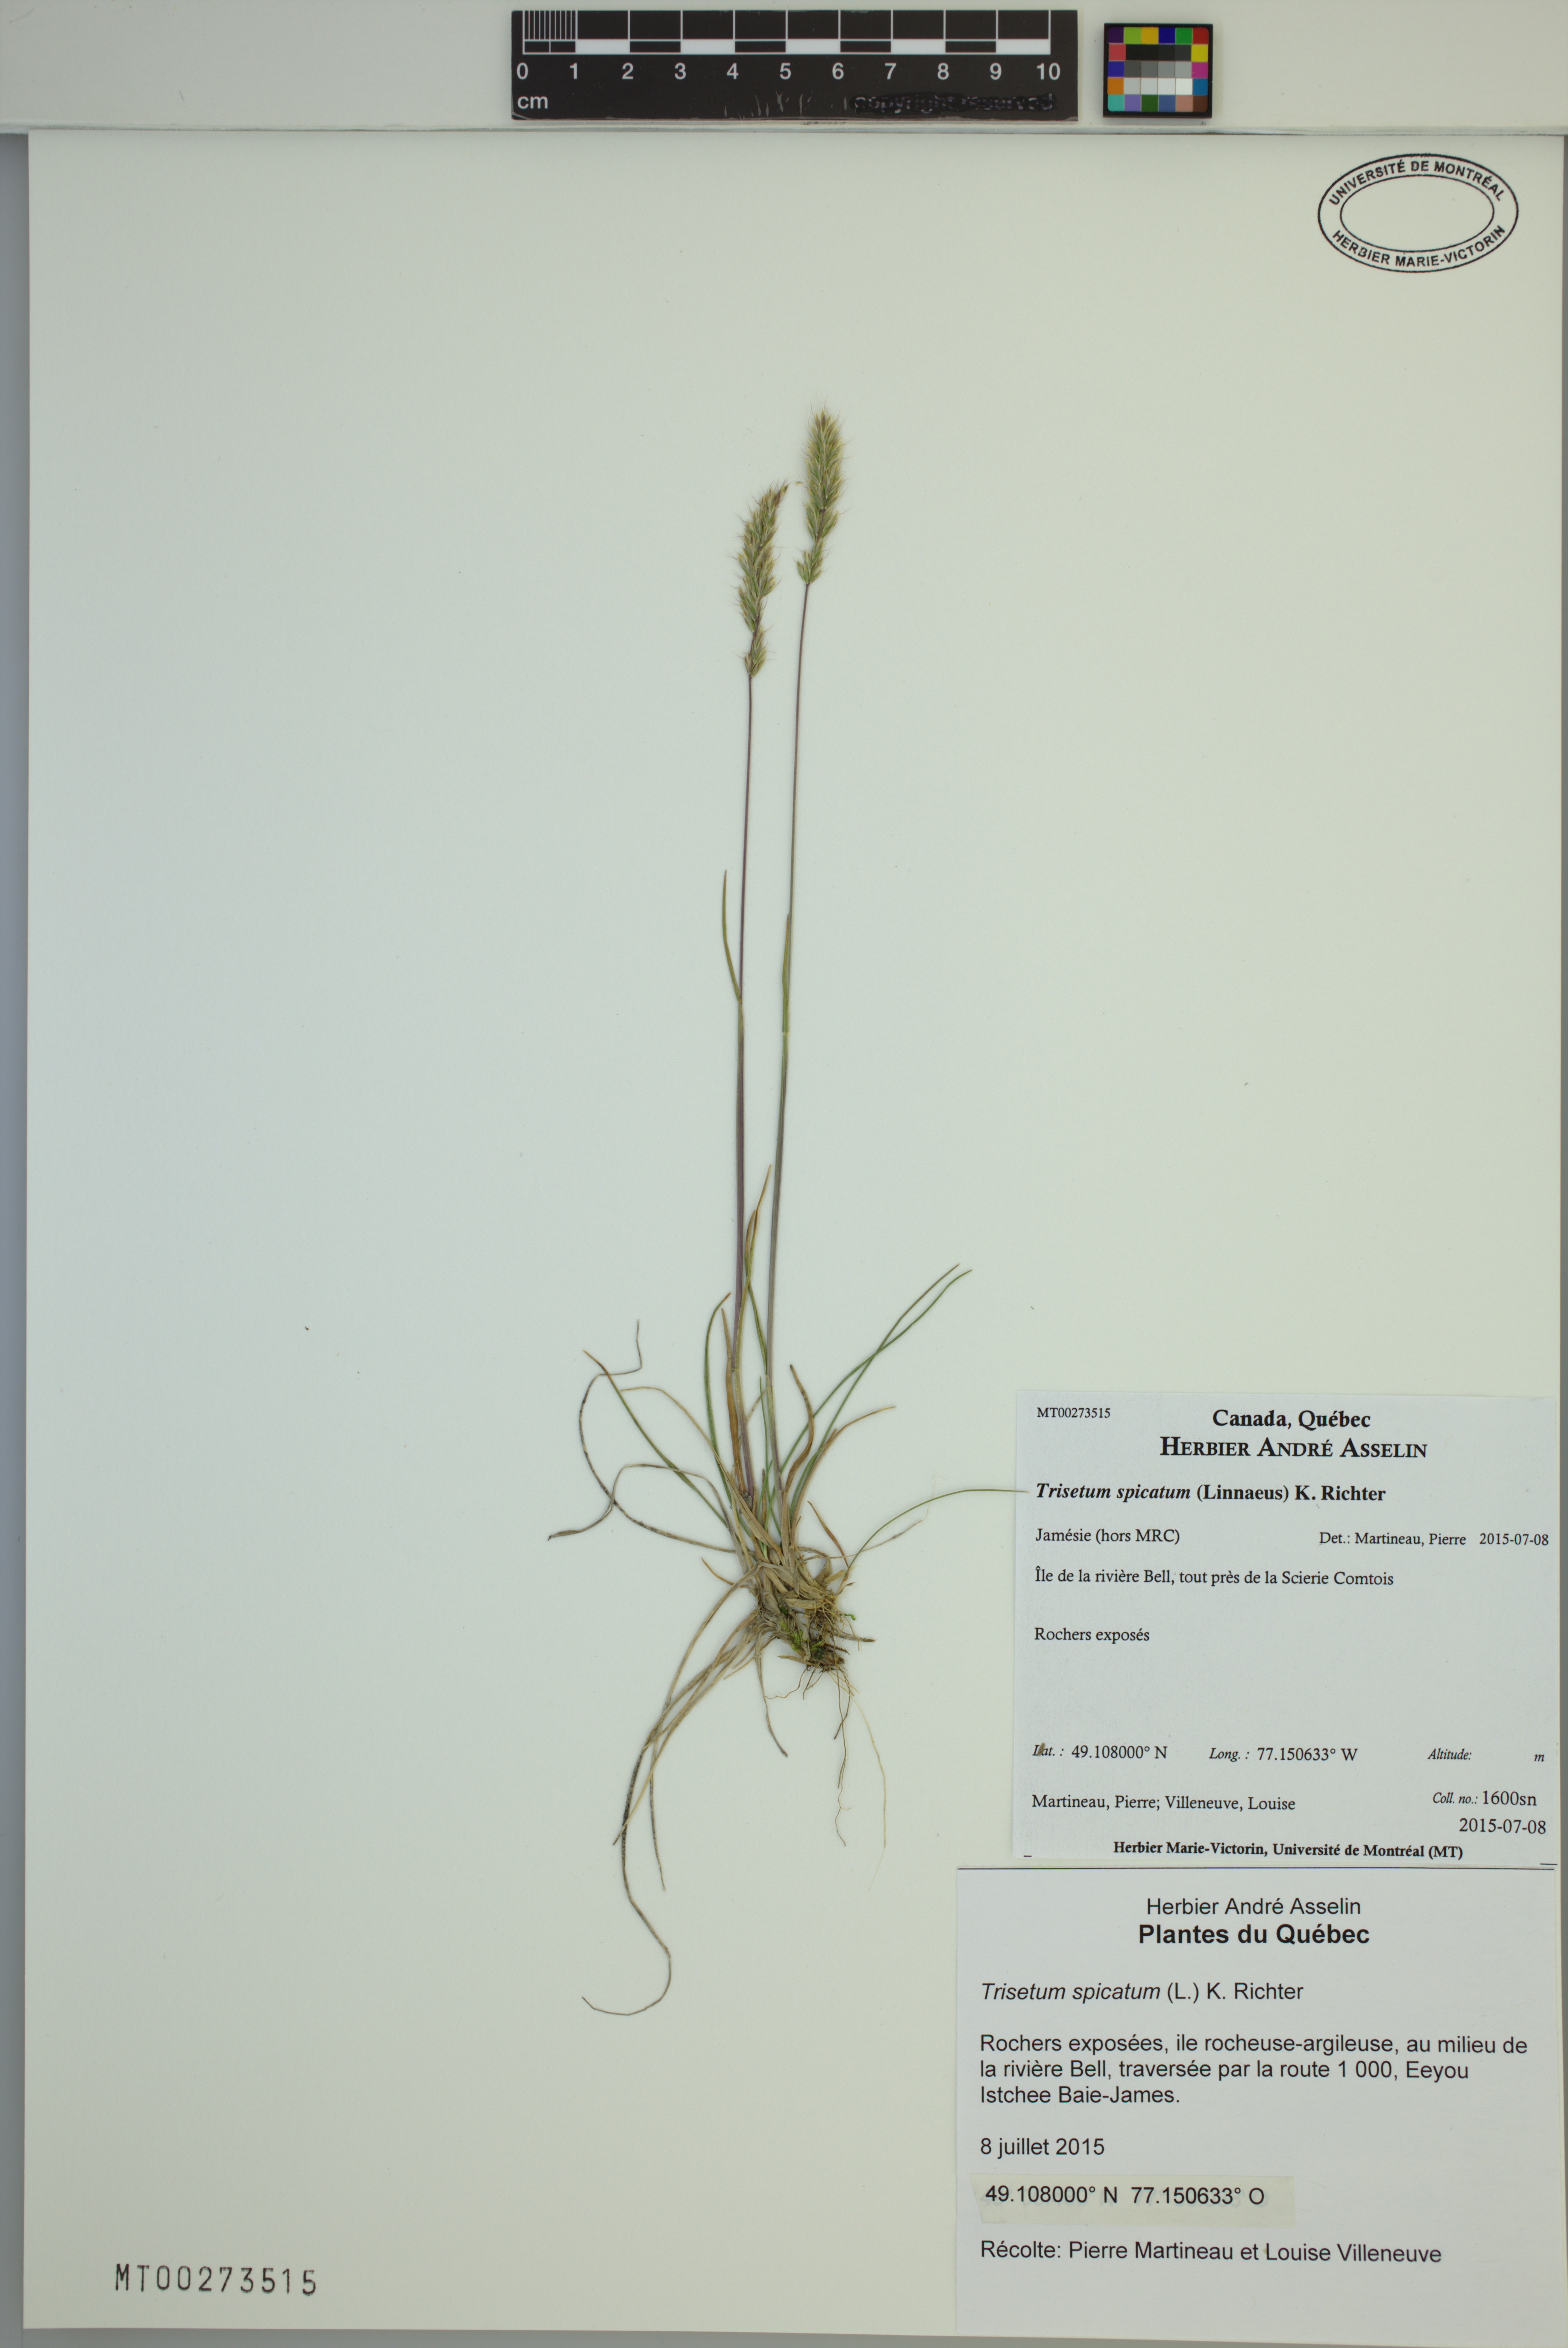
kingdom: Plantae
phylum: Tracheophyta
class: Liliopsida
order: Poales
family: Poaceae
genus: Koeleria
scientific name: Koeleria spicata
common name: Mountain trisetum
